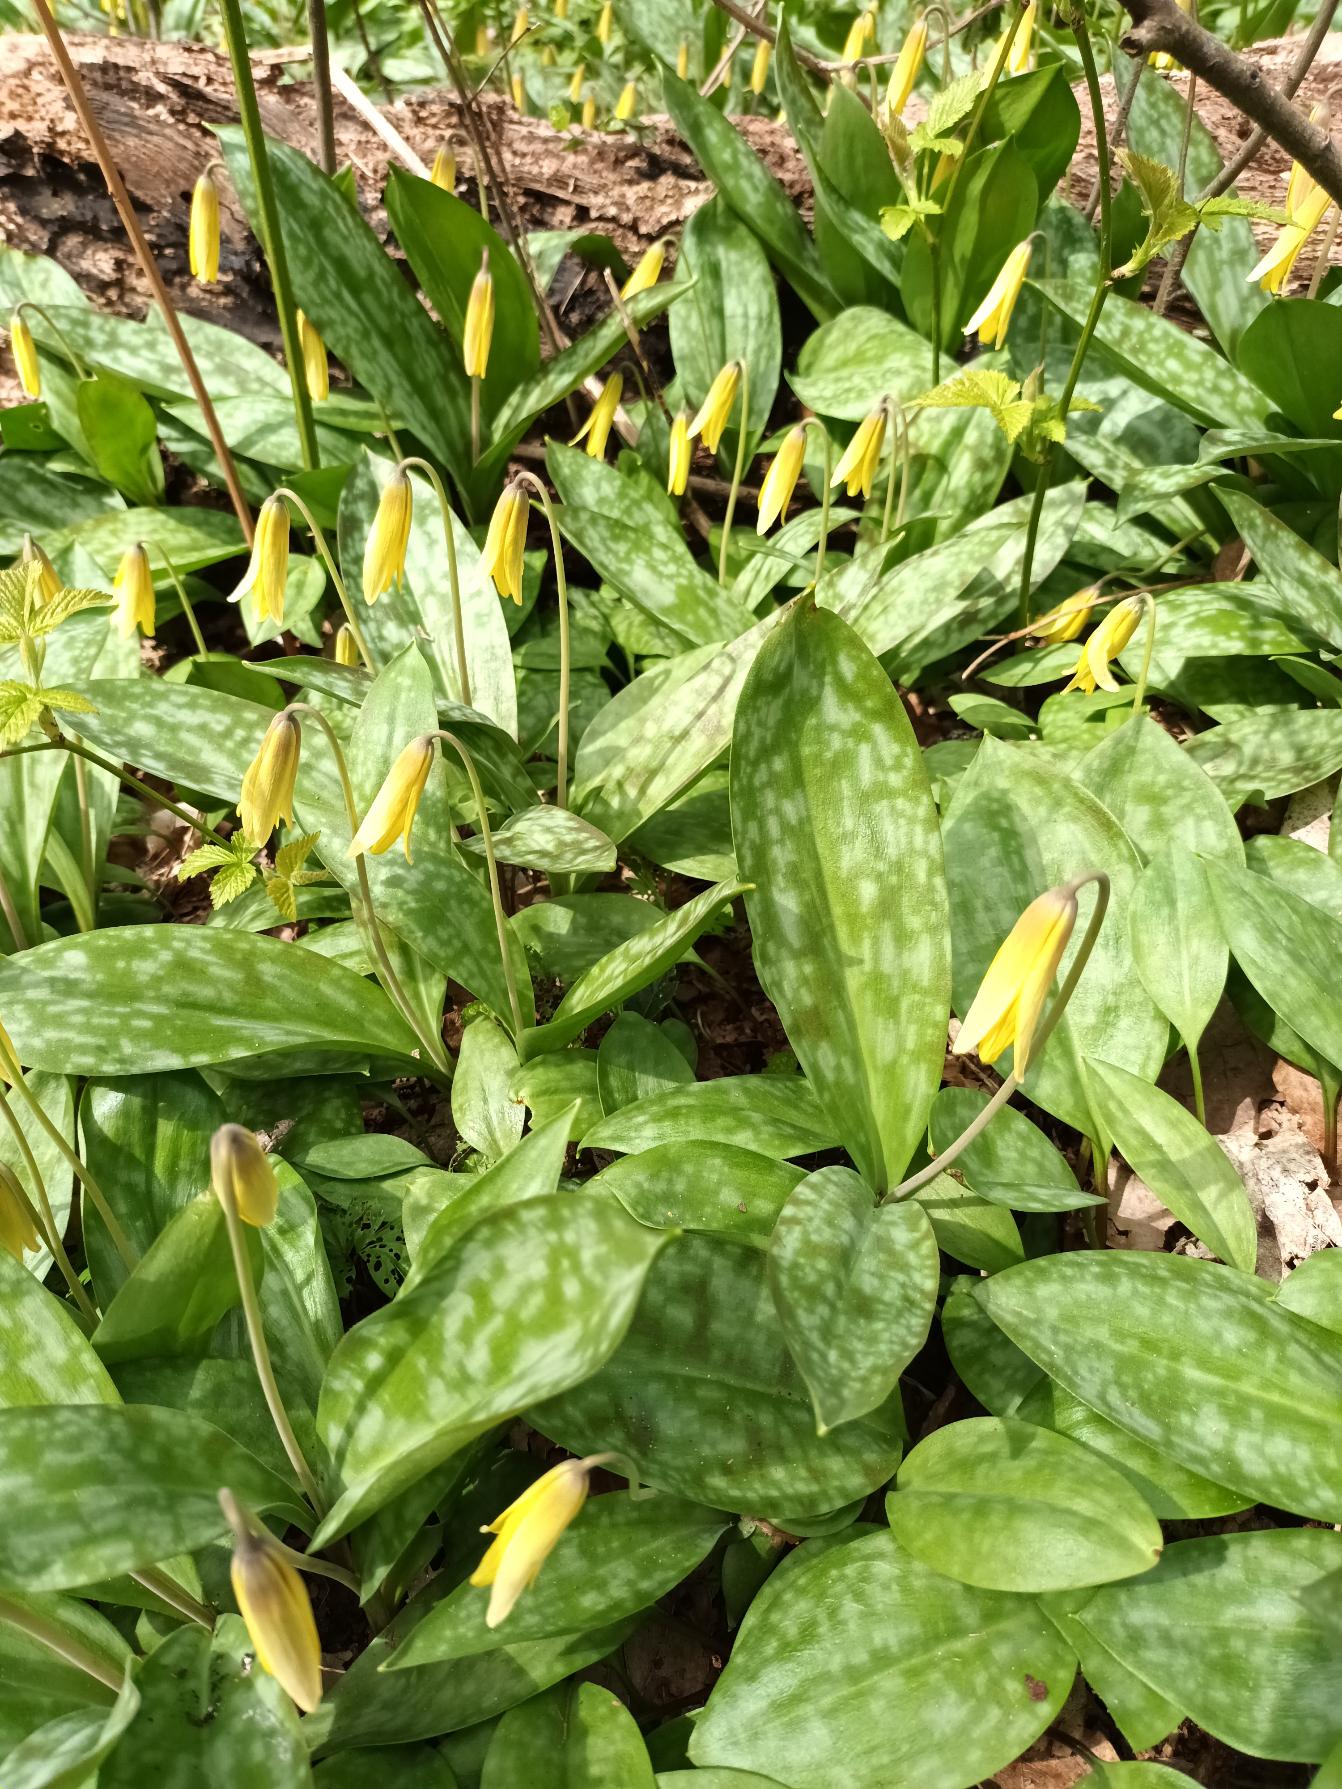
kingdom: Plantae
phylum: Tracheophyta
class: Liliopsida
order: Liliales
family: Liliaceae
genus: Erythronium
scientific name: Erythronium americanum
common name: Gul hundetand
